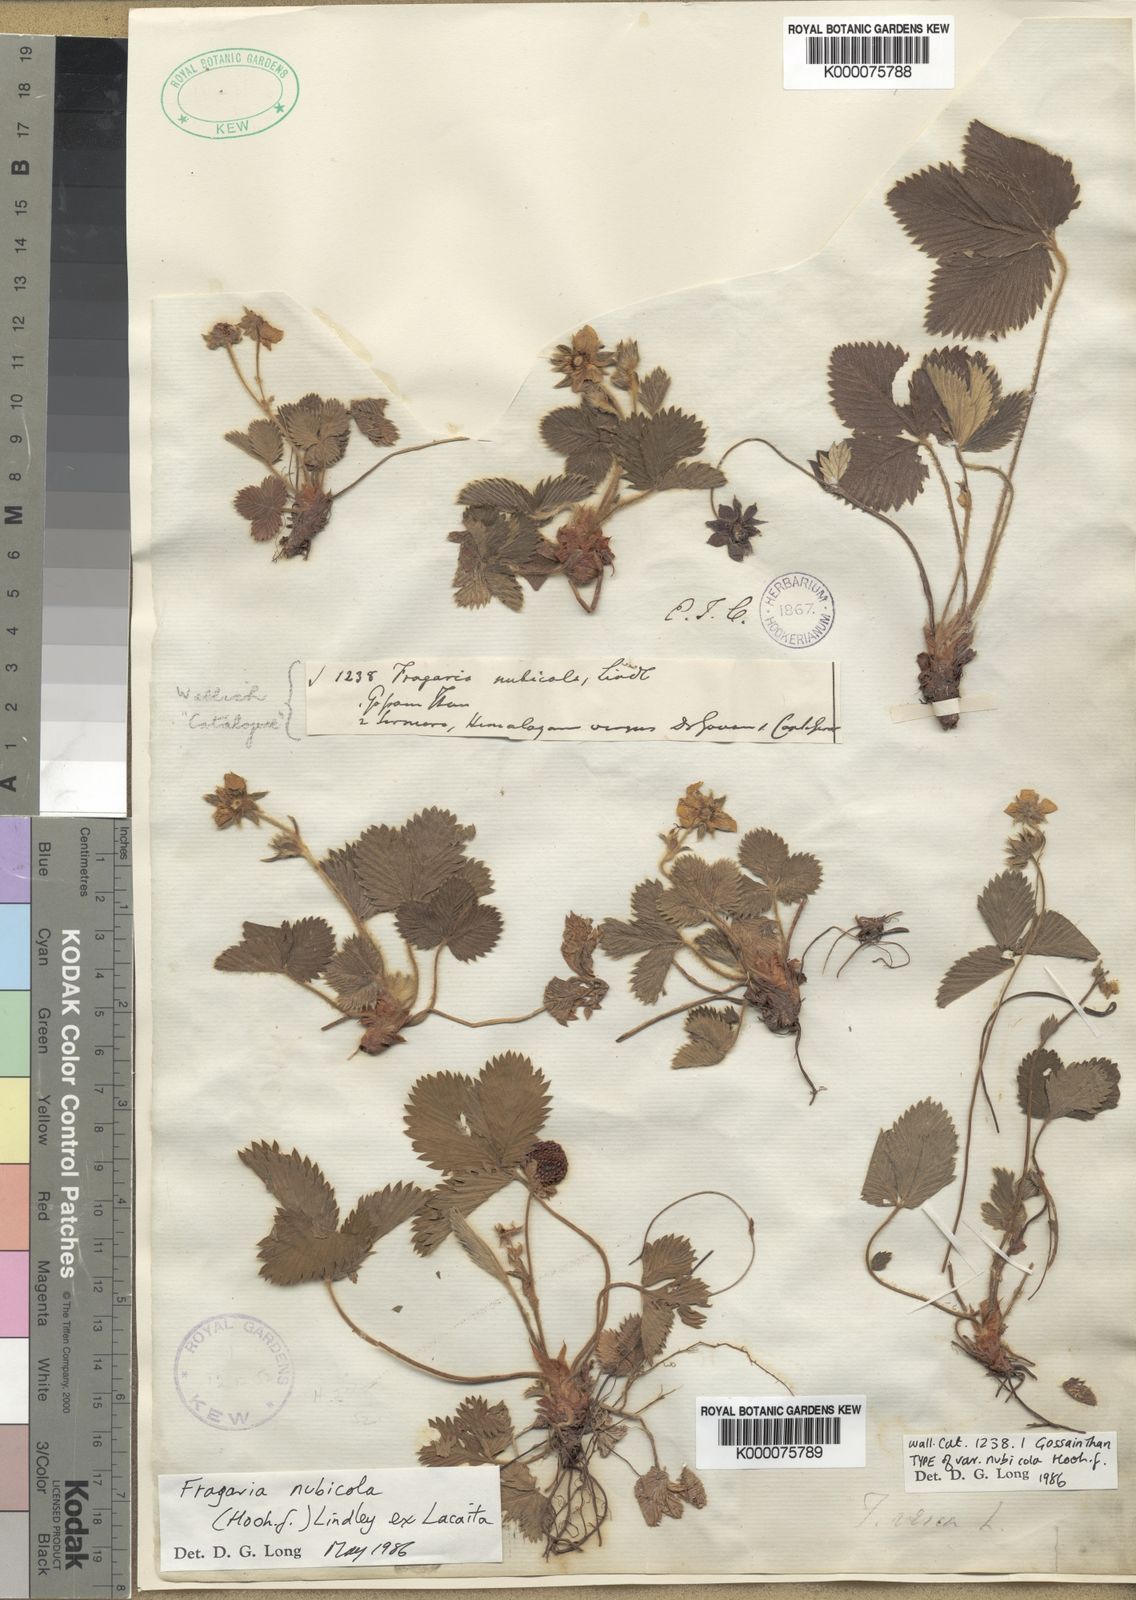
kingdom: Plantae
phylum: Tracheophyta
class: Magnoliopsida
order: Rosales
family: Rosaceae
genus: Fragaria
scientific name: Fragaria nubicola
